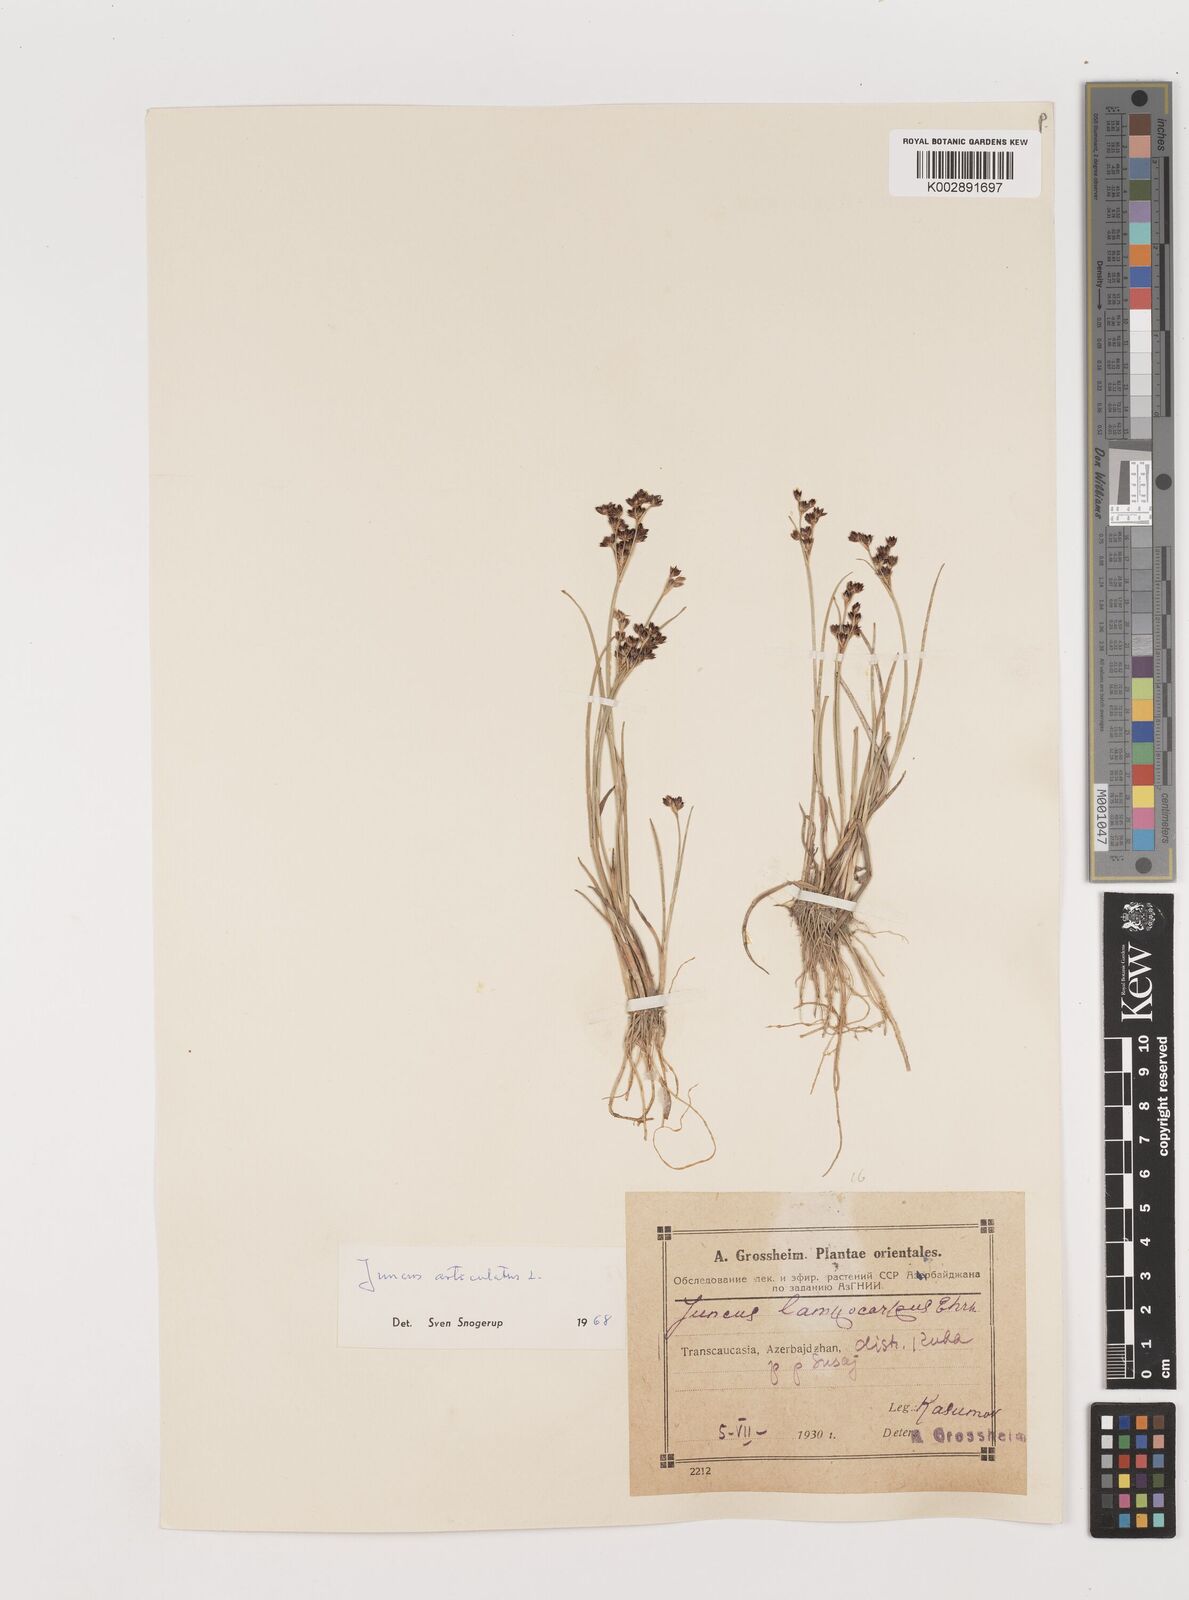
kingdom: Plantae
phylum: Tracheophyta
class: Liliopsida
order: Poales
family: Juncaceae
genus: Juncus
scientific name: Juncus astreptus
